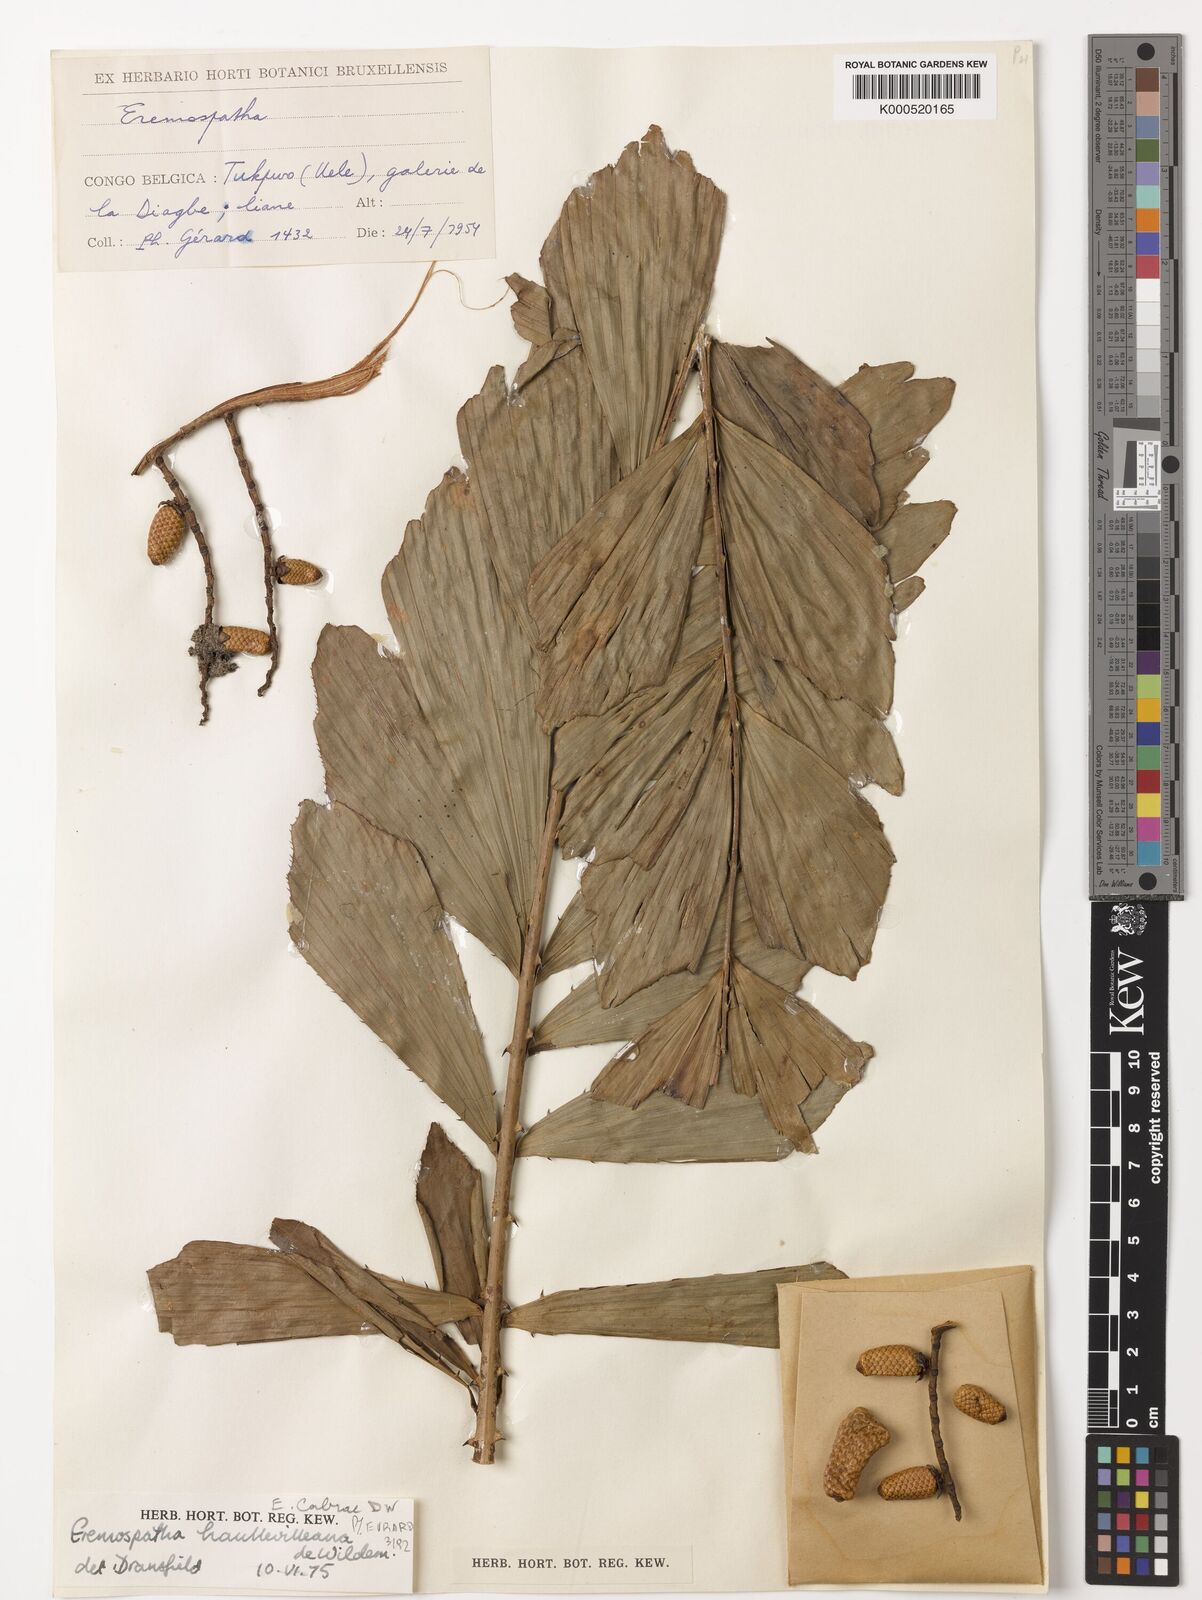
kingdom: Plantae
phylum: Tracheophyta
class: Liliopsida
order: Arecales
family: Arecaceae
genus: Eremospatha
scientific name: Eremospatha haullevilleana
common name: Rattan
